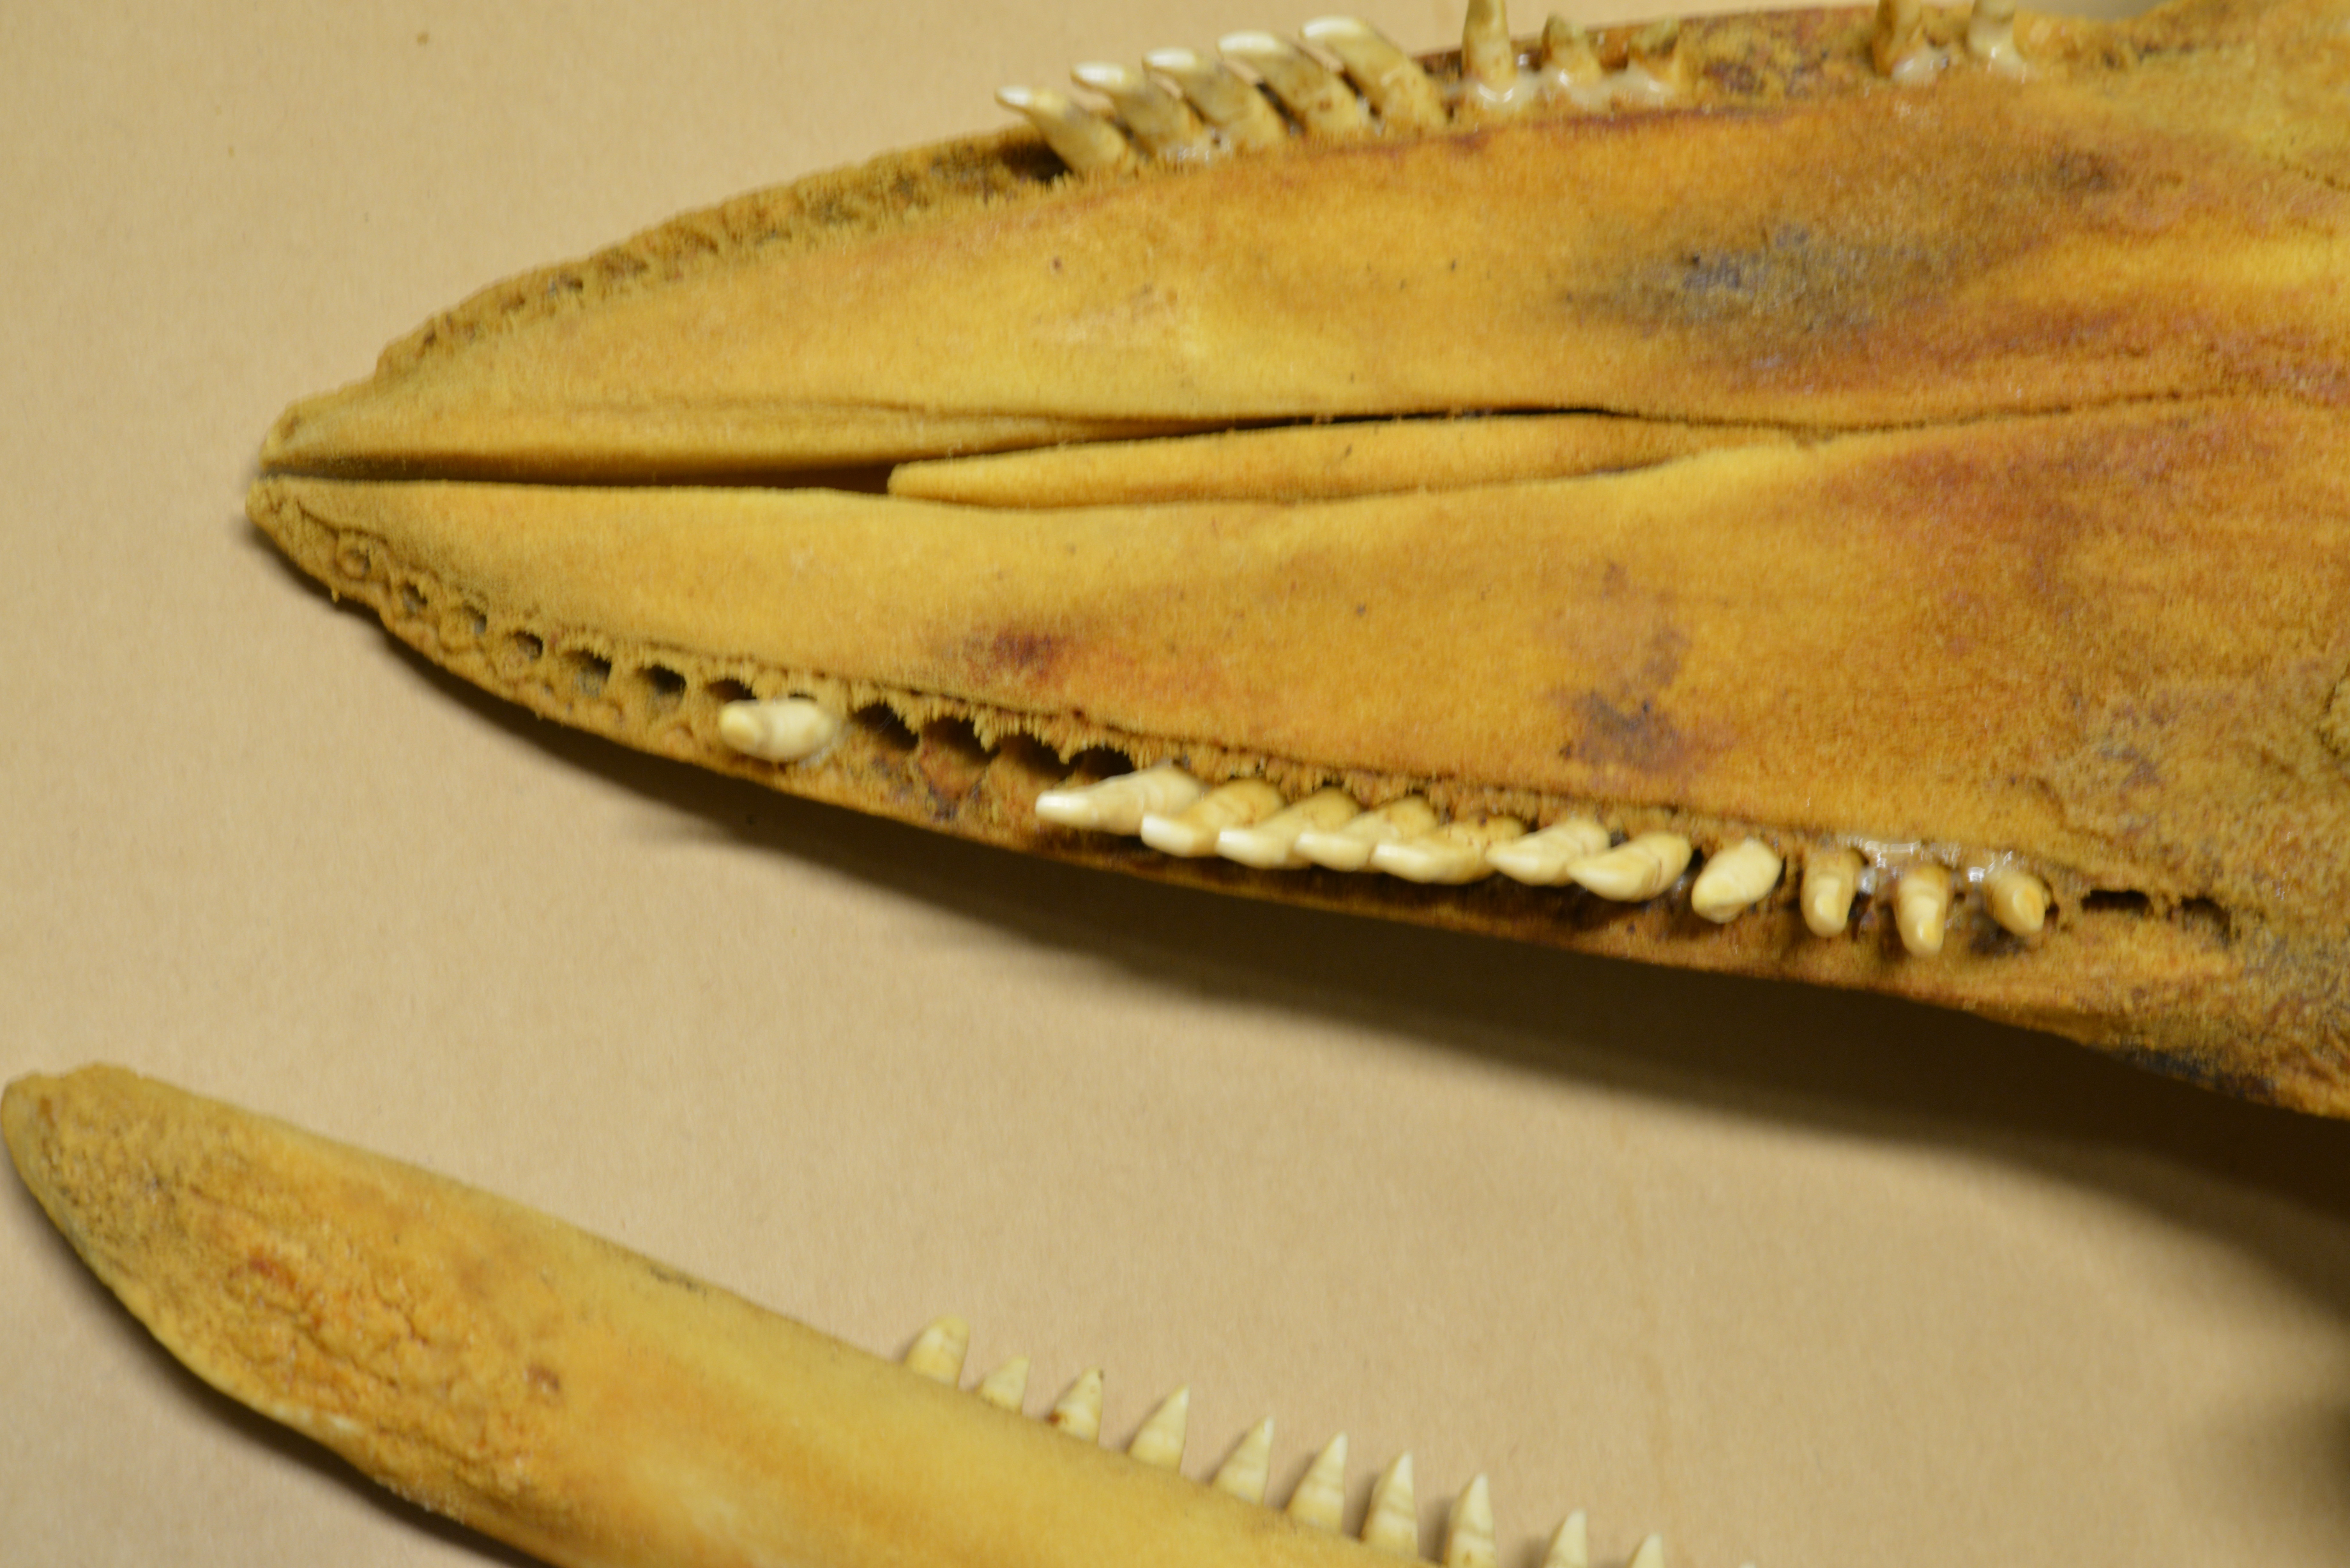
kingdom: Animalia
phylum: Chordata
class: Mammalia
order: Cetacea
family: Delphinidae
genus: Lagenorhynchus
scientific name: Lagenorhynchus albirostris
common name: White-beaked dolphin
